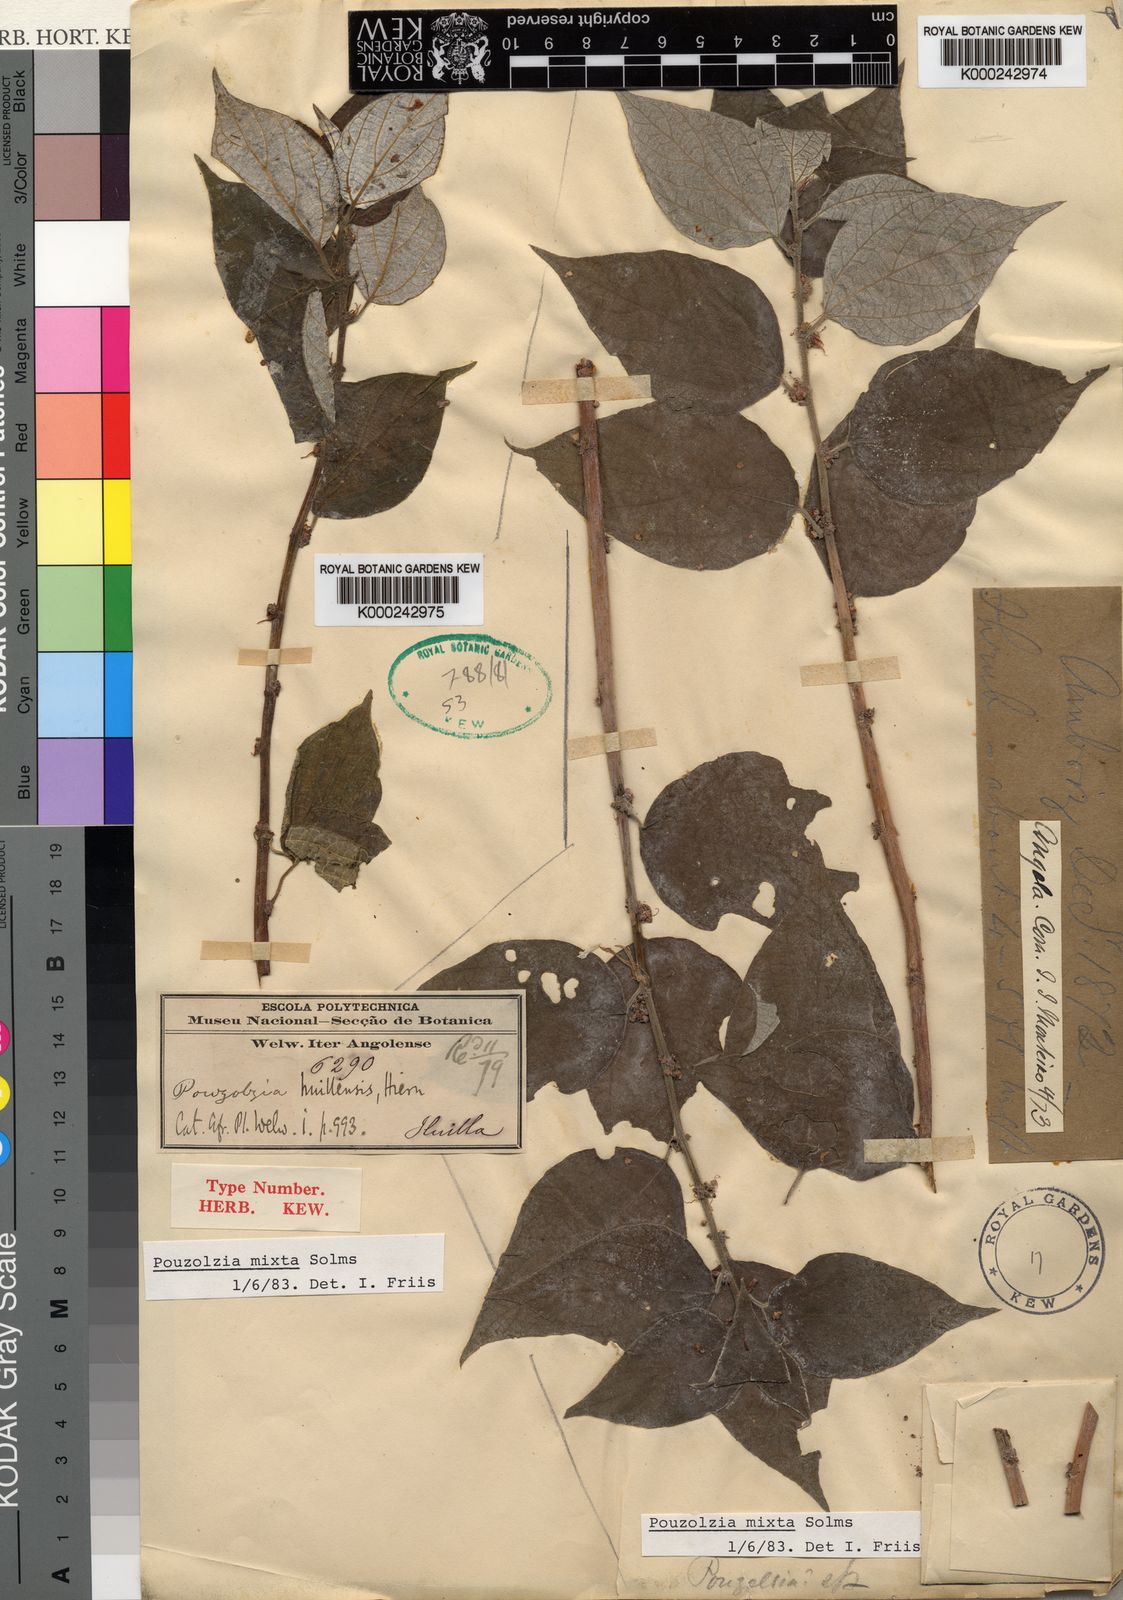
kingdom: Plantae
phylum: Tracheophyta
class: Magnoliopsida
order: Rosales
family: Urticaceae
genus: Pouzolzia
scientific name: Pouzolzia mixta
